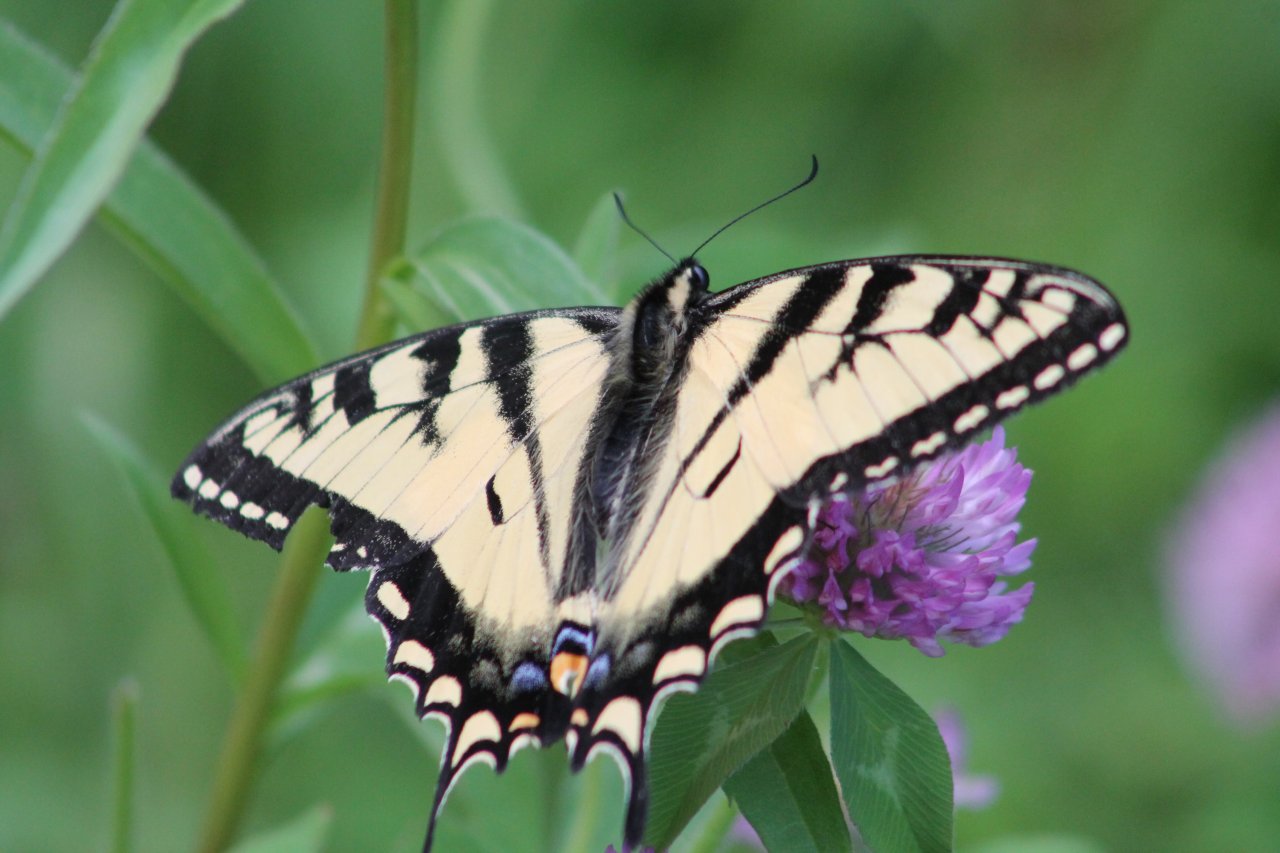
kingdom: Animalia
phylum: Arthropoda
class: Insecta
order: Lepidoptera
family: Papilionidae
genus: Pterourus
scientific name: Pterourus canadensis
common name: Canadian Tiger Swallowtail
